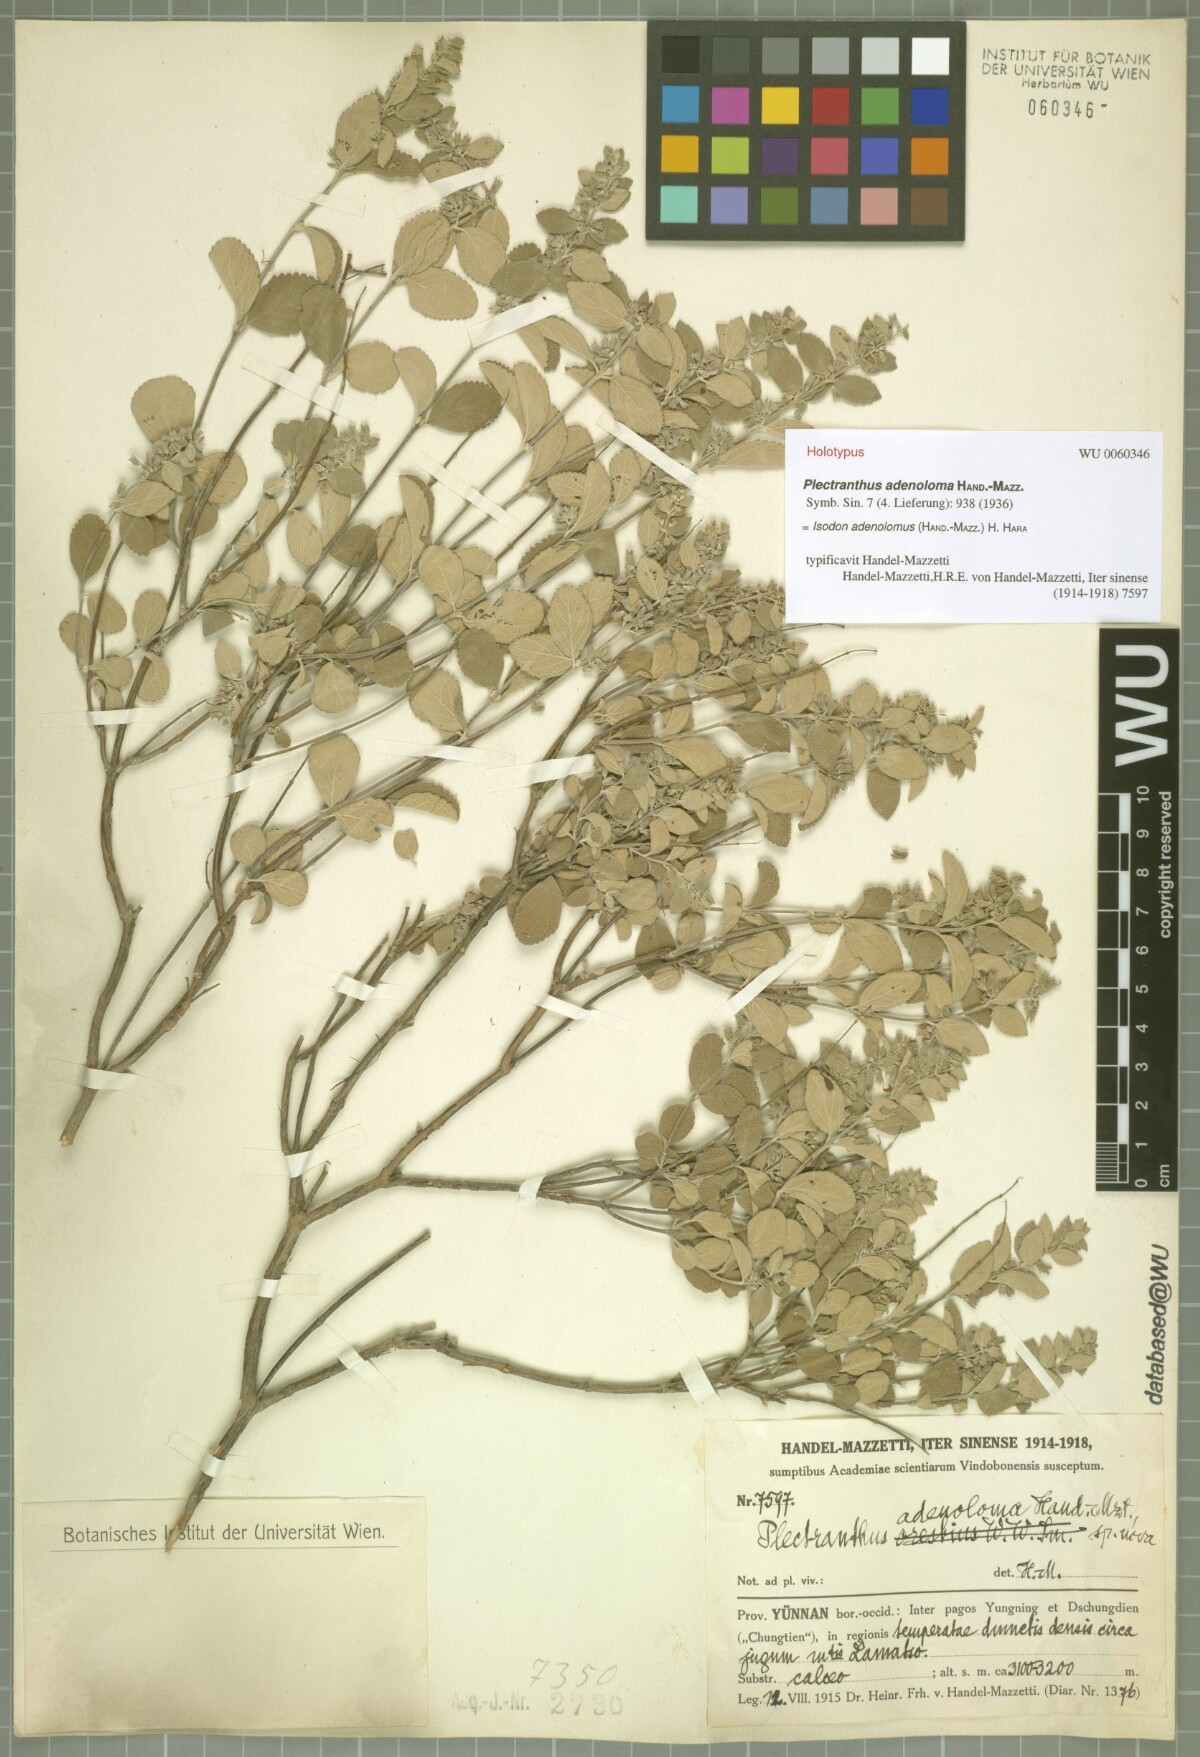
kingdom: Plantae
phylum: Tracheophyta
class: Magnoliopsida
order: Lamiales
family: Lamiaceae
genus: Isodon
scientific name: Isodon adenolomus
